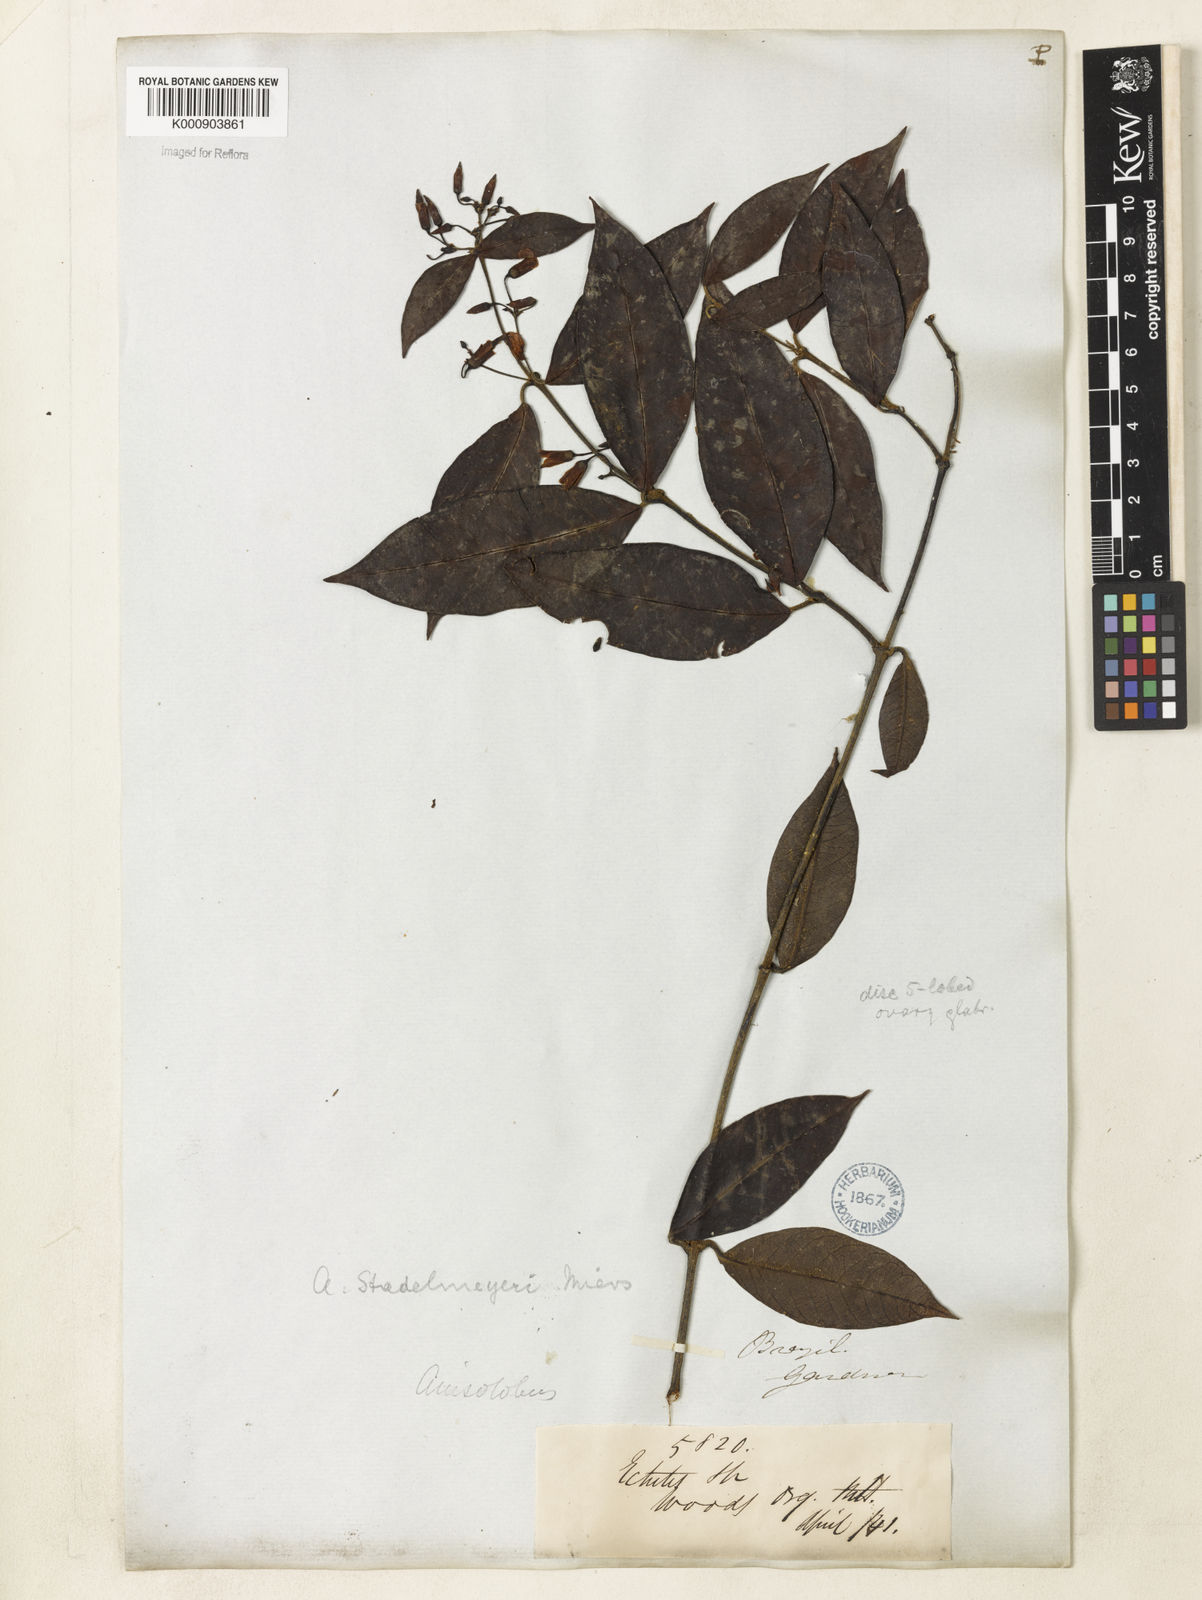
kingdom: Plantae
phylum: Tracheophyta
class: Magnoliopsida
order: Gentianales
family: Apocynaceae
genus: Odontadenia
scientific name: Odontadenia gracilipes
